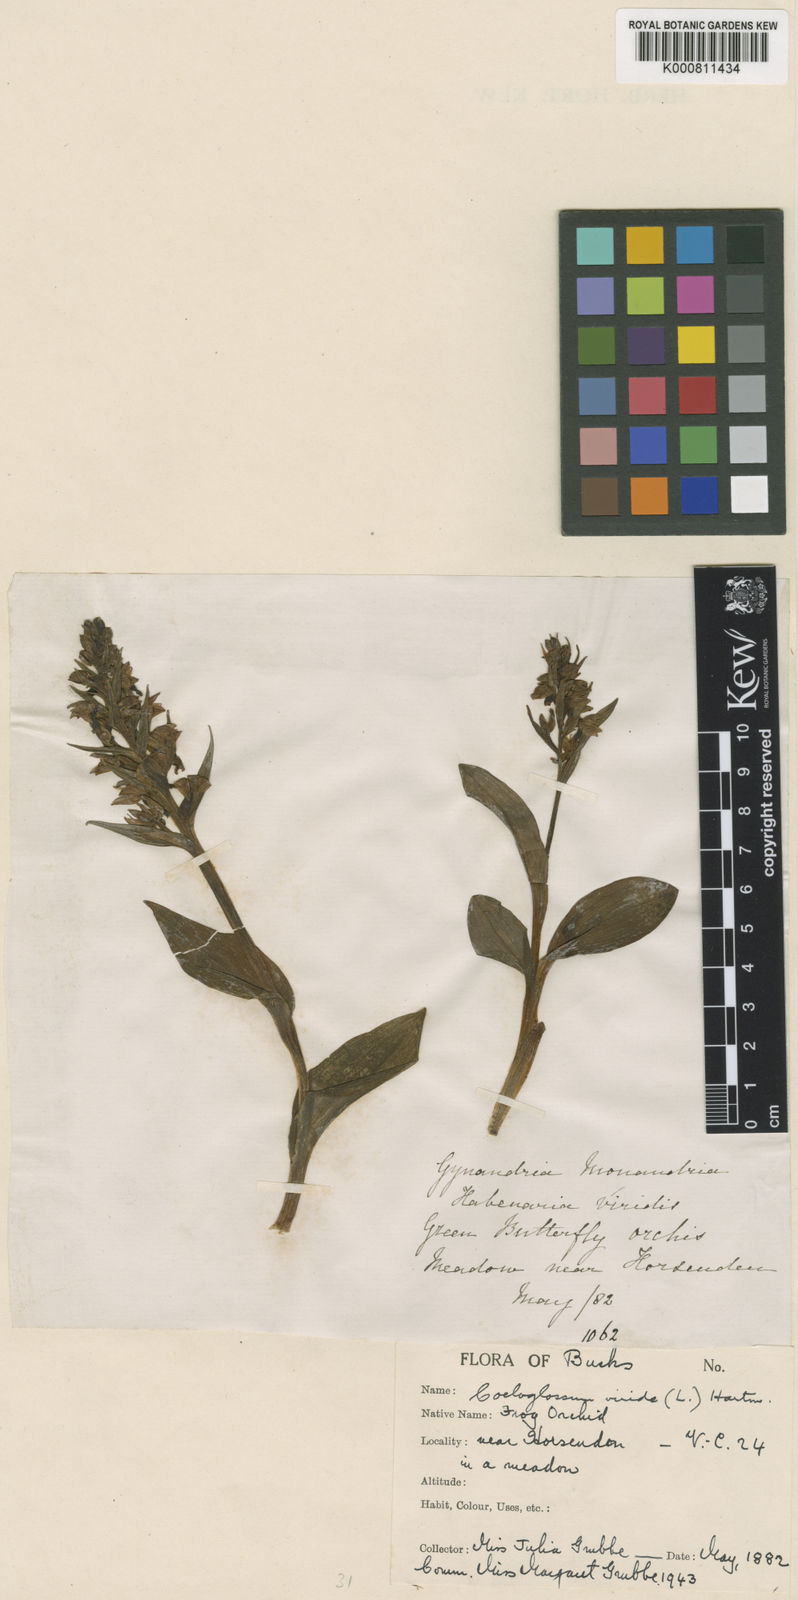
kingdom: Plantae
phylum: Tracheophyta
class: Liliopsida
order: Asparagales
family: Orchidaceae
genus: Dactylorhiza
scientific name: Dactylorhiza viridis
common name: Longbract frog orchid
